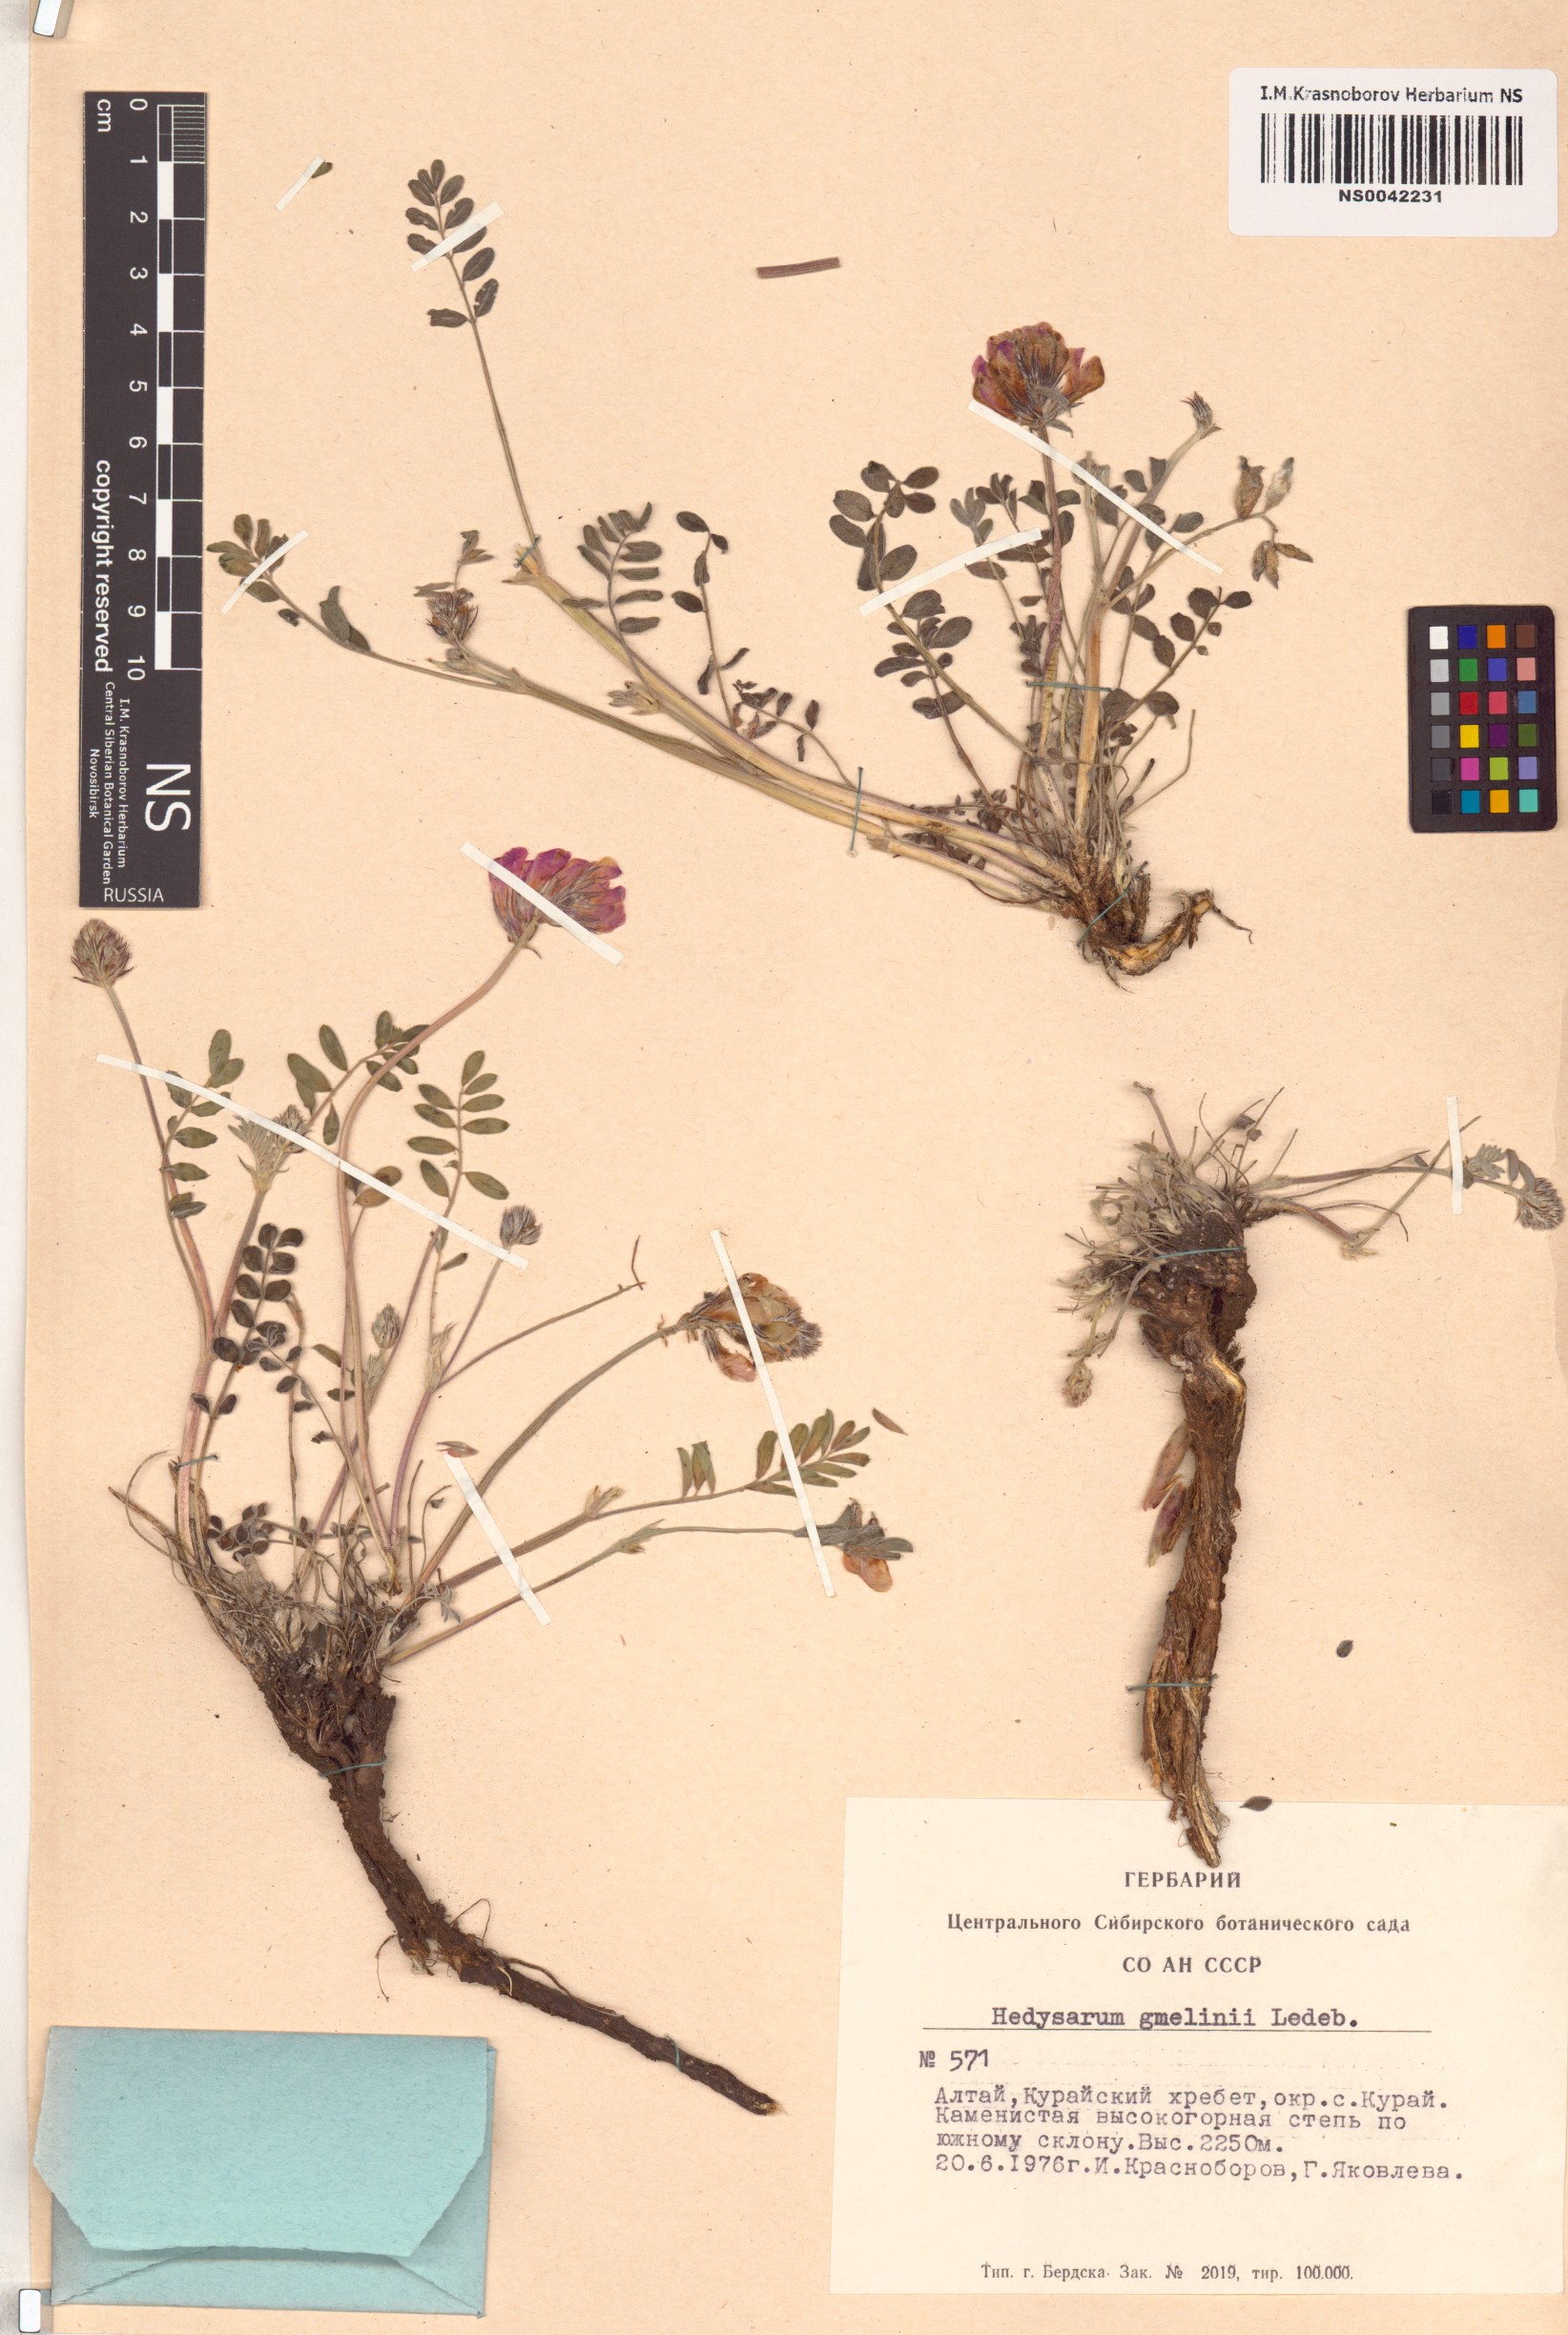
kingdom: Plantae
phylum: Tracheophyta
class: Magnoliopsida
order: Fabales
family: Fabaceae
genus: Hedysarum
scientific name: Hedysarum gmelinii
